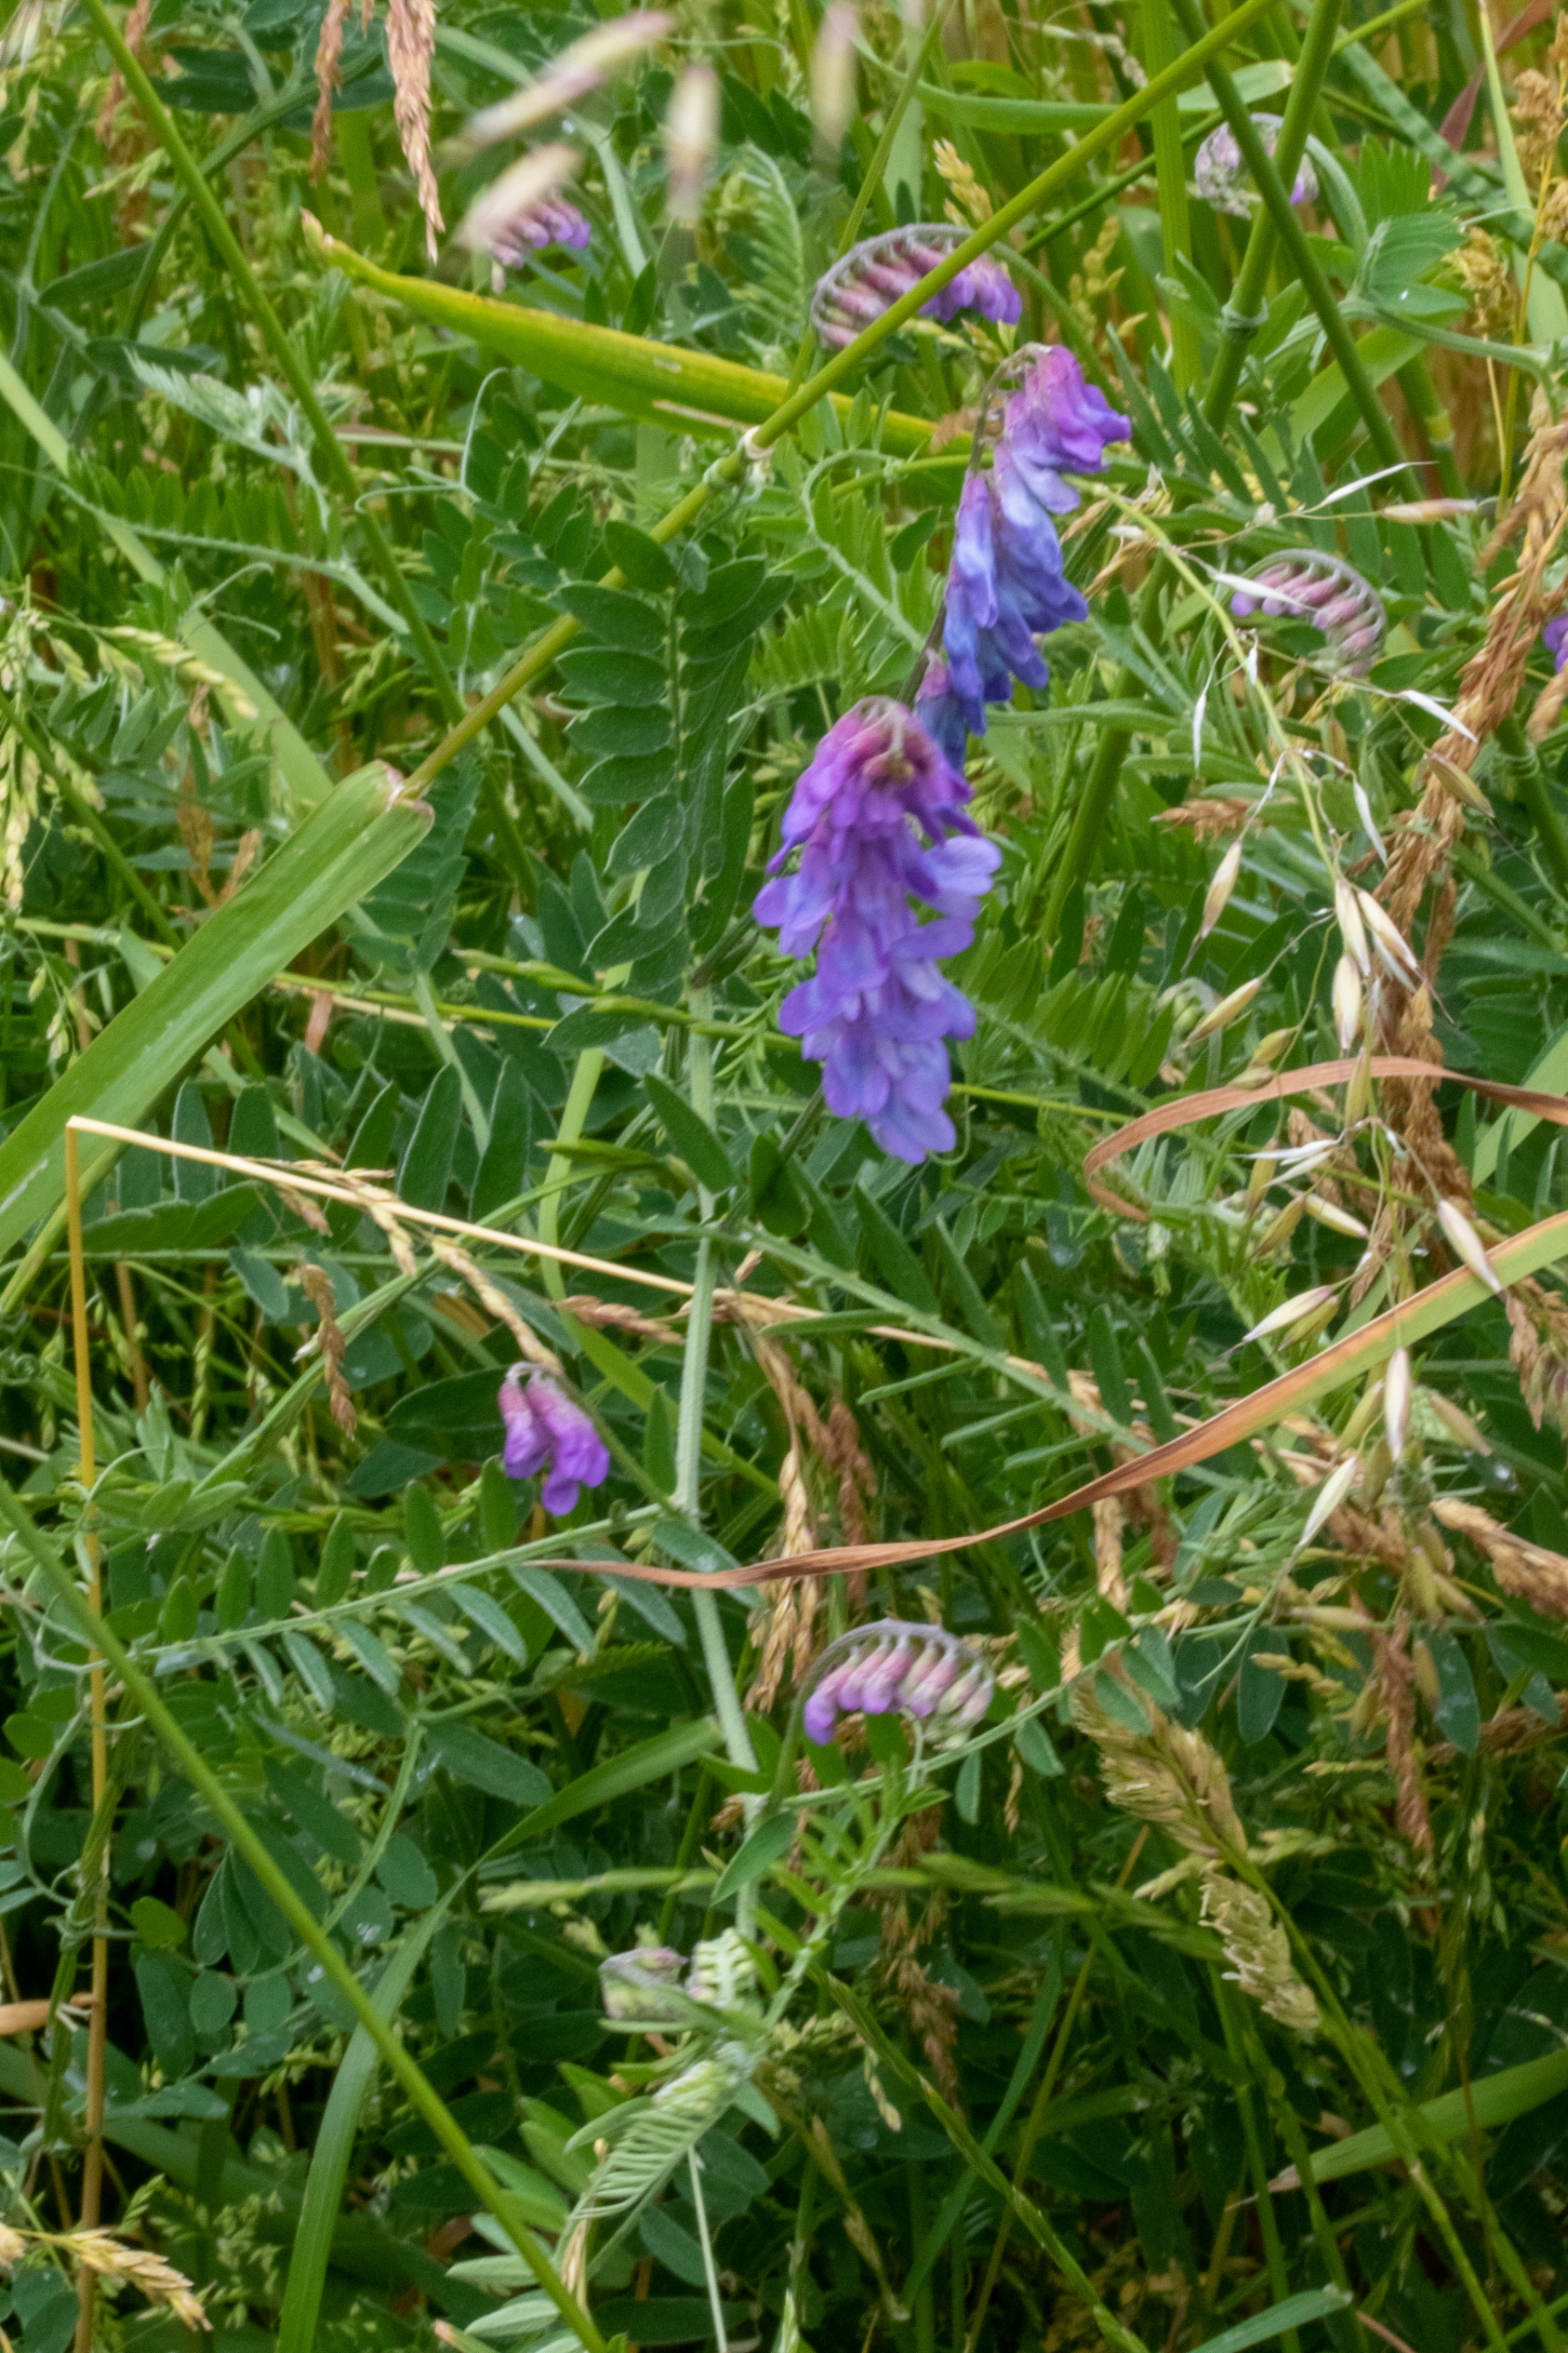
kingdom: Plantae
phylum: Tracheophyta
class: Magnoliopsida
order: Fabales
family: Fabaceae
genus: Vicia
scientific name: Vicia cracca
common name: Muse-vikke
